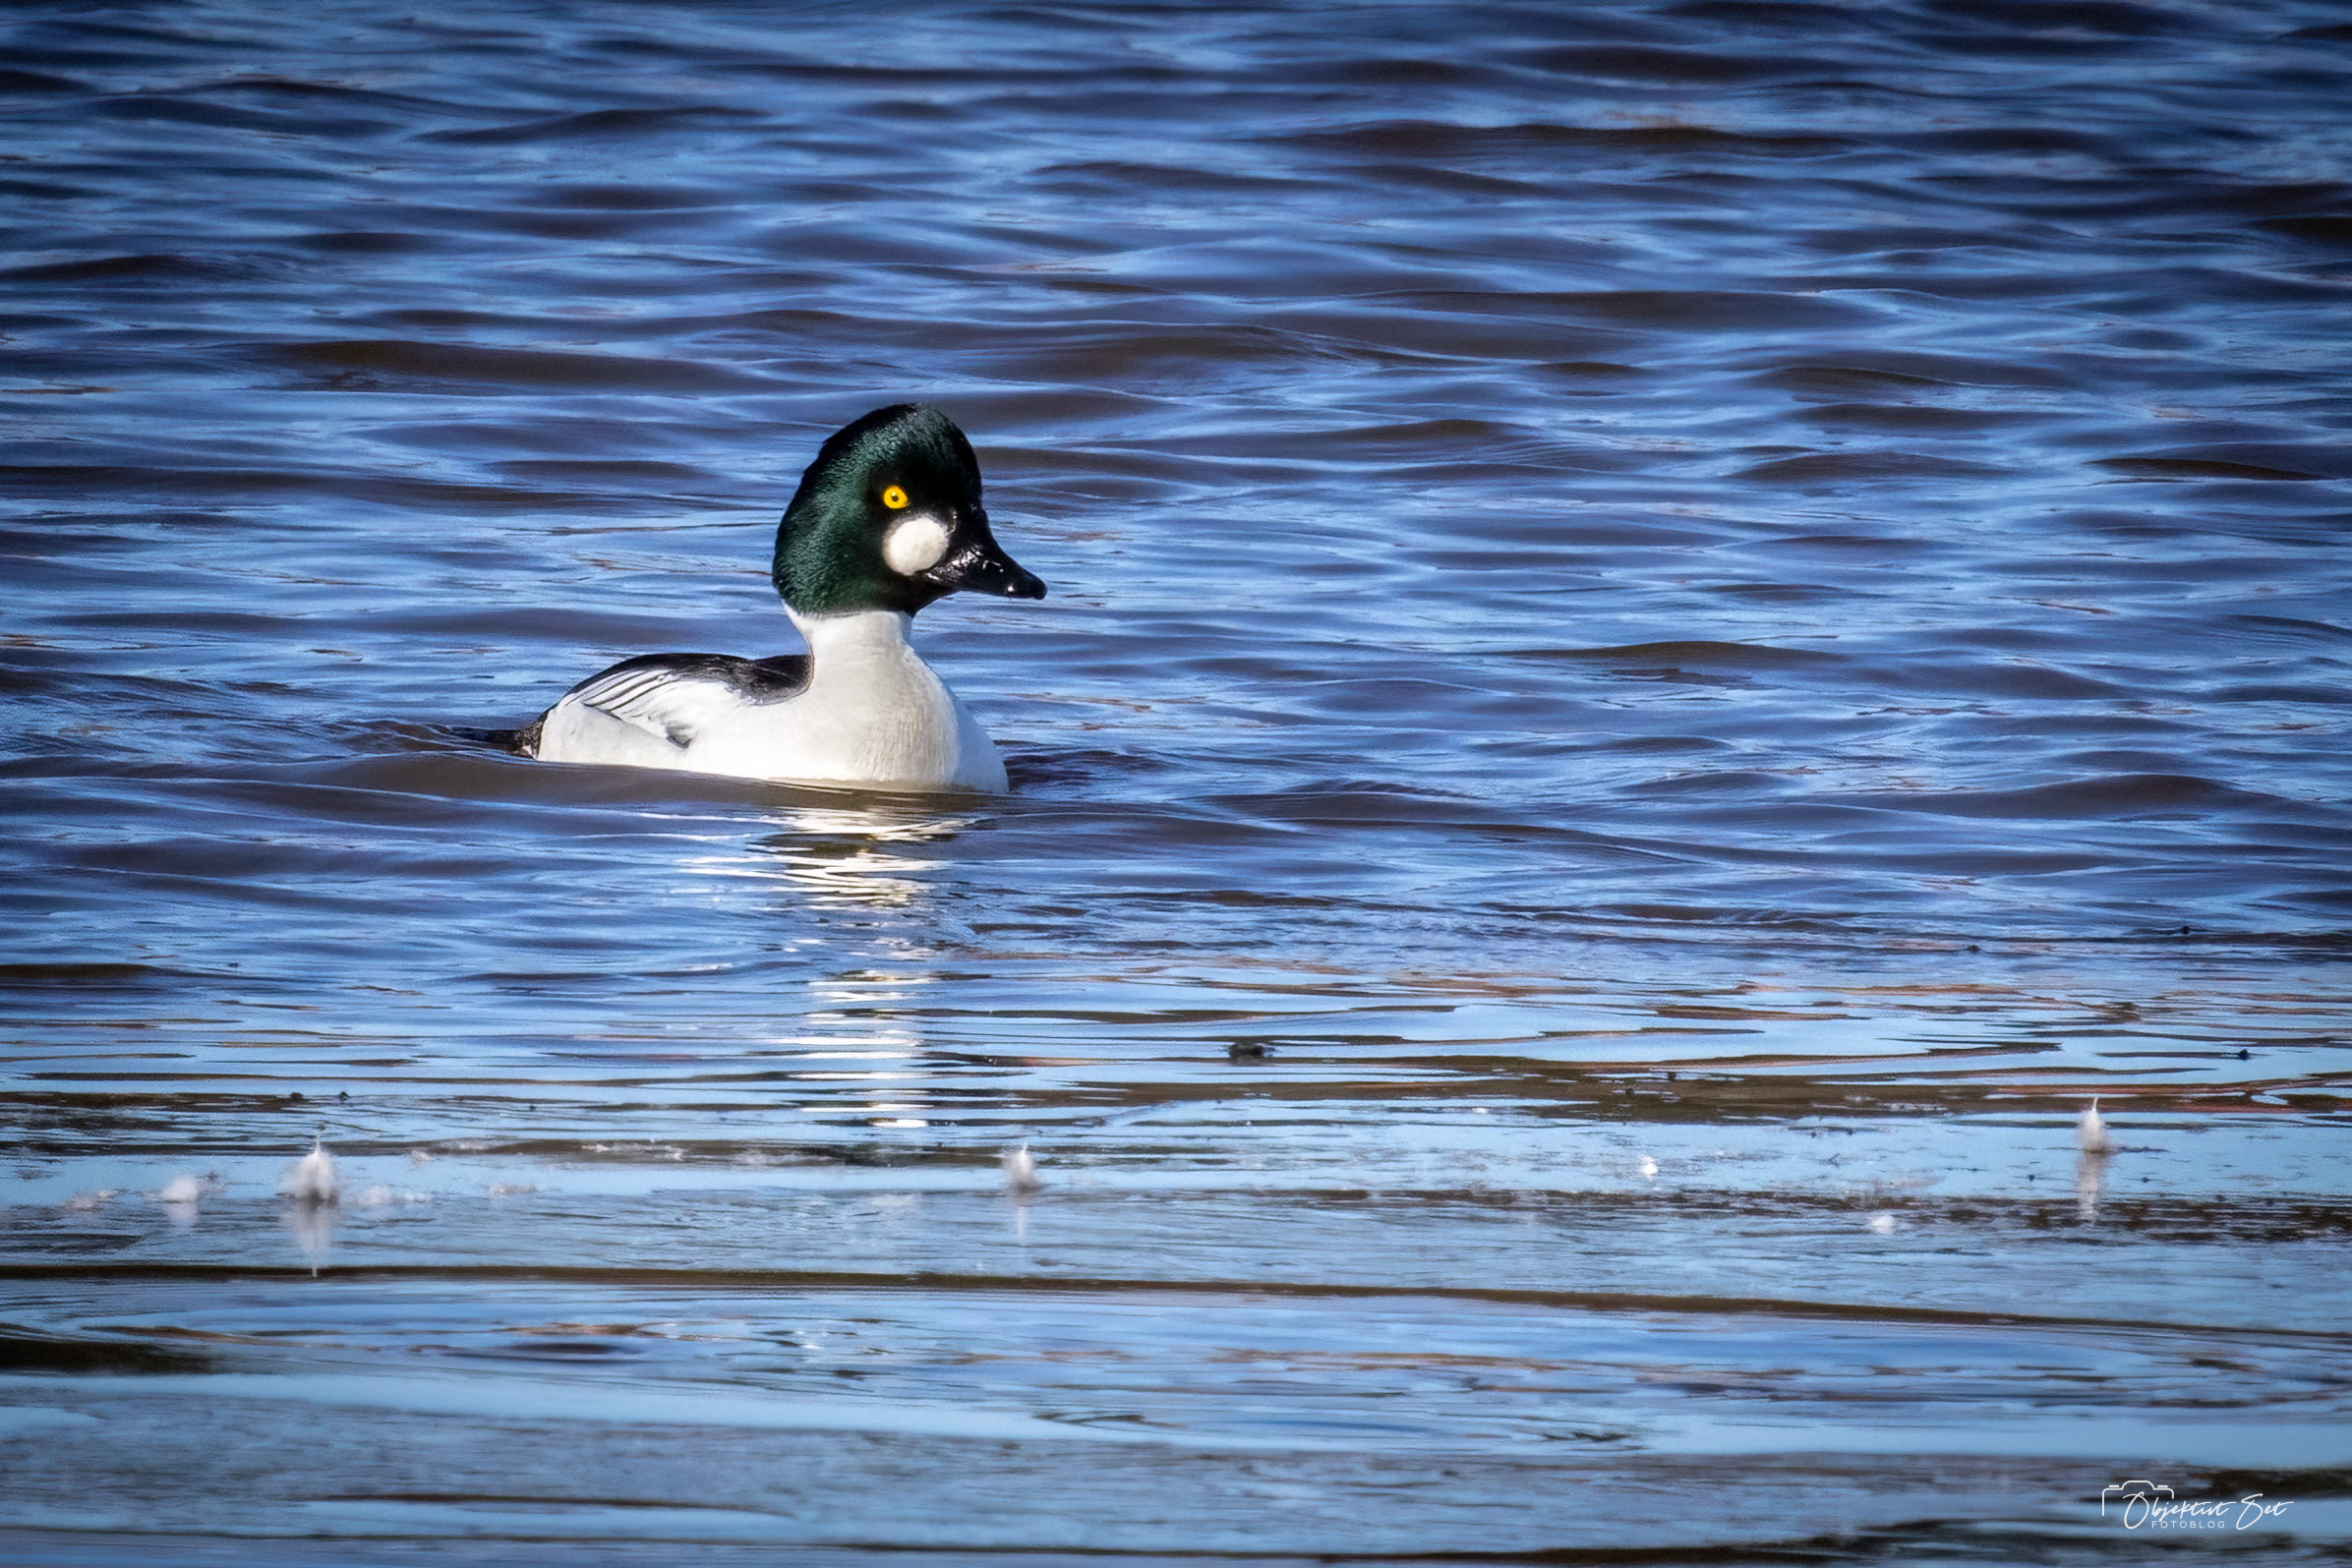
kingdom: Animalia
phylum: Chordata
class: Aves
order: Anseriformes
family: Anatidae
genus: Bucephala
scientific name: Bucephala clangula
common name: Hvinand
